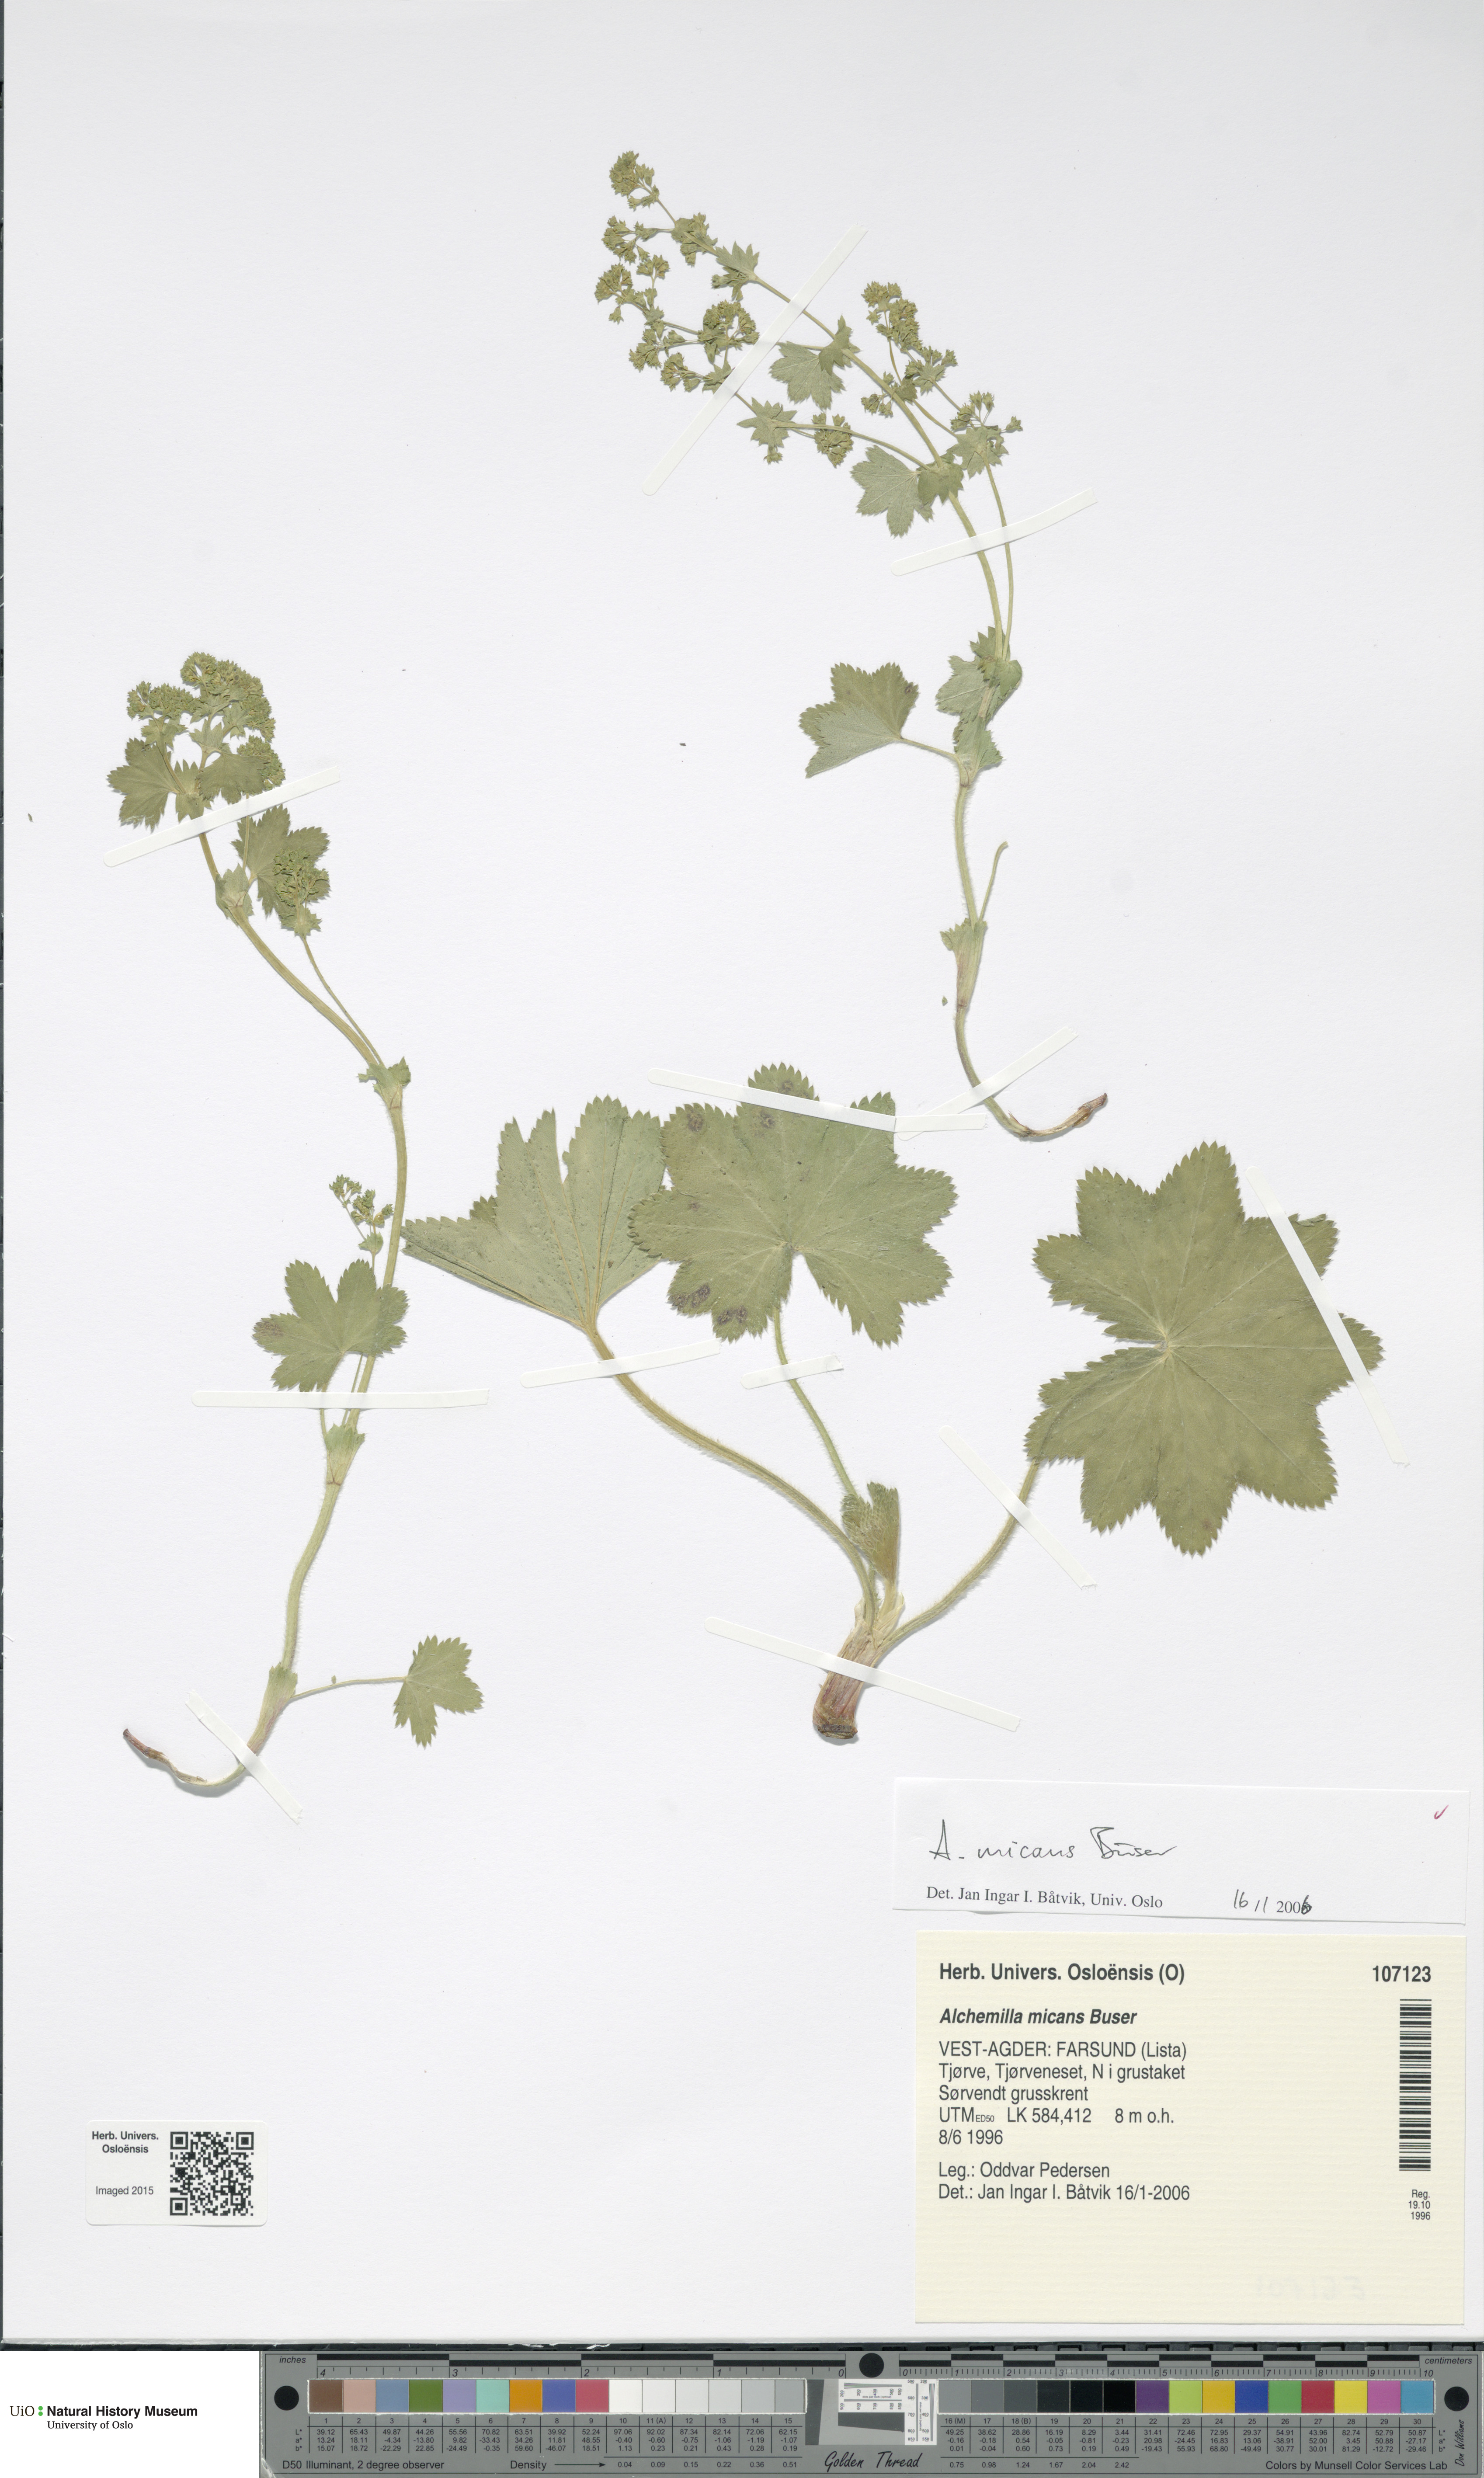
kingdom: Plantae
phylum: Tracheophyta
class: Magnoliopsida
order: Rosales
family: Rosaceae
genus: Alchemilla
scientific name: Alchemilla micans
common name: Gleaming lady's mantle
